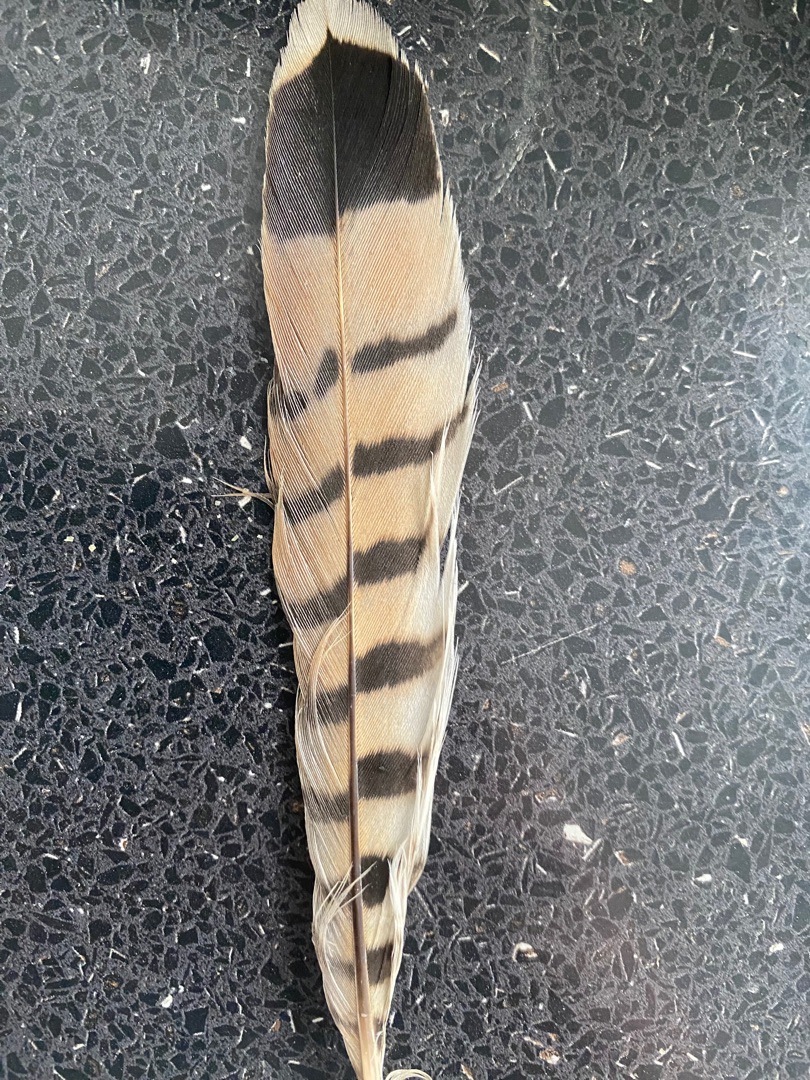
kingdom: Animalia
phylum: Chordata
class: Aves
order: Falconiformes
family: Falconidae
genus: Falco
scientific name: Falco tinnunculus
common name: Tårnfalk
